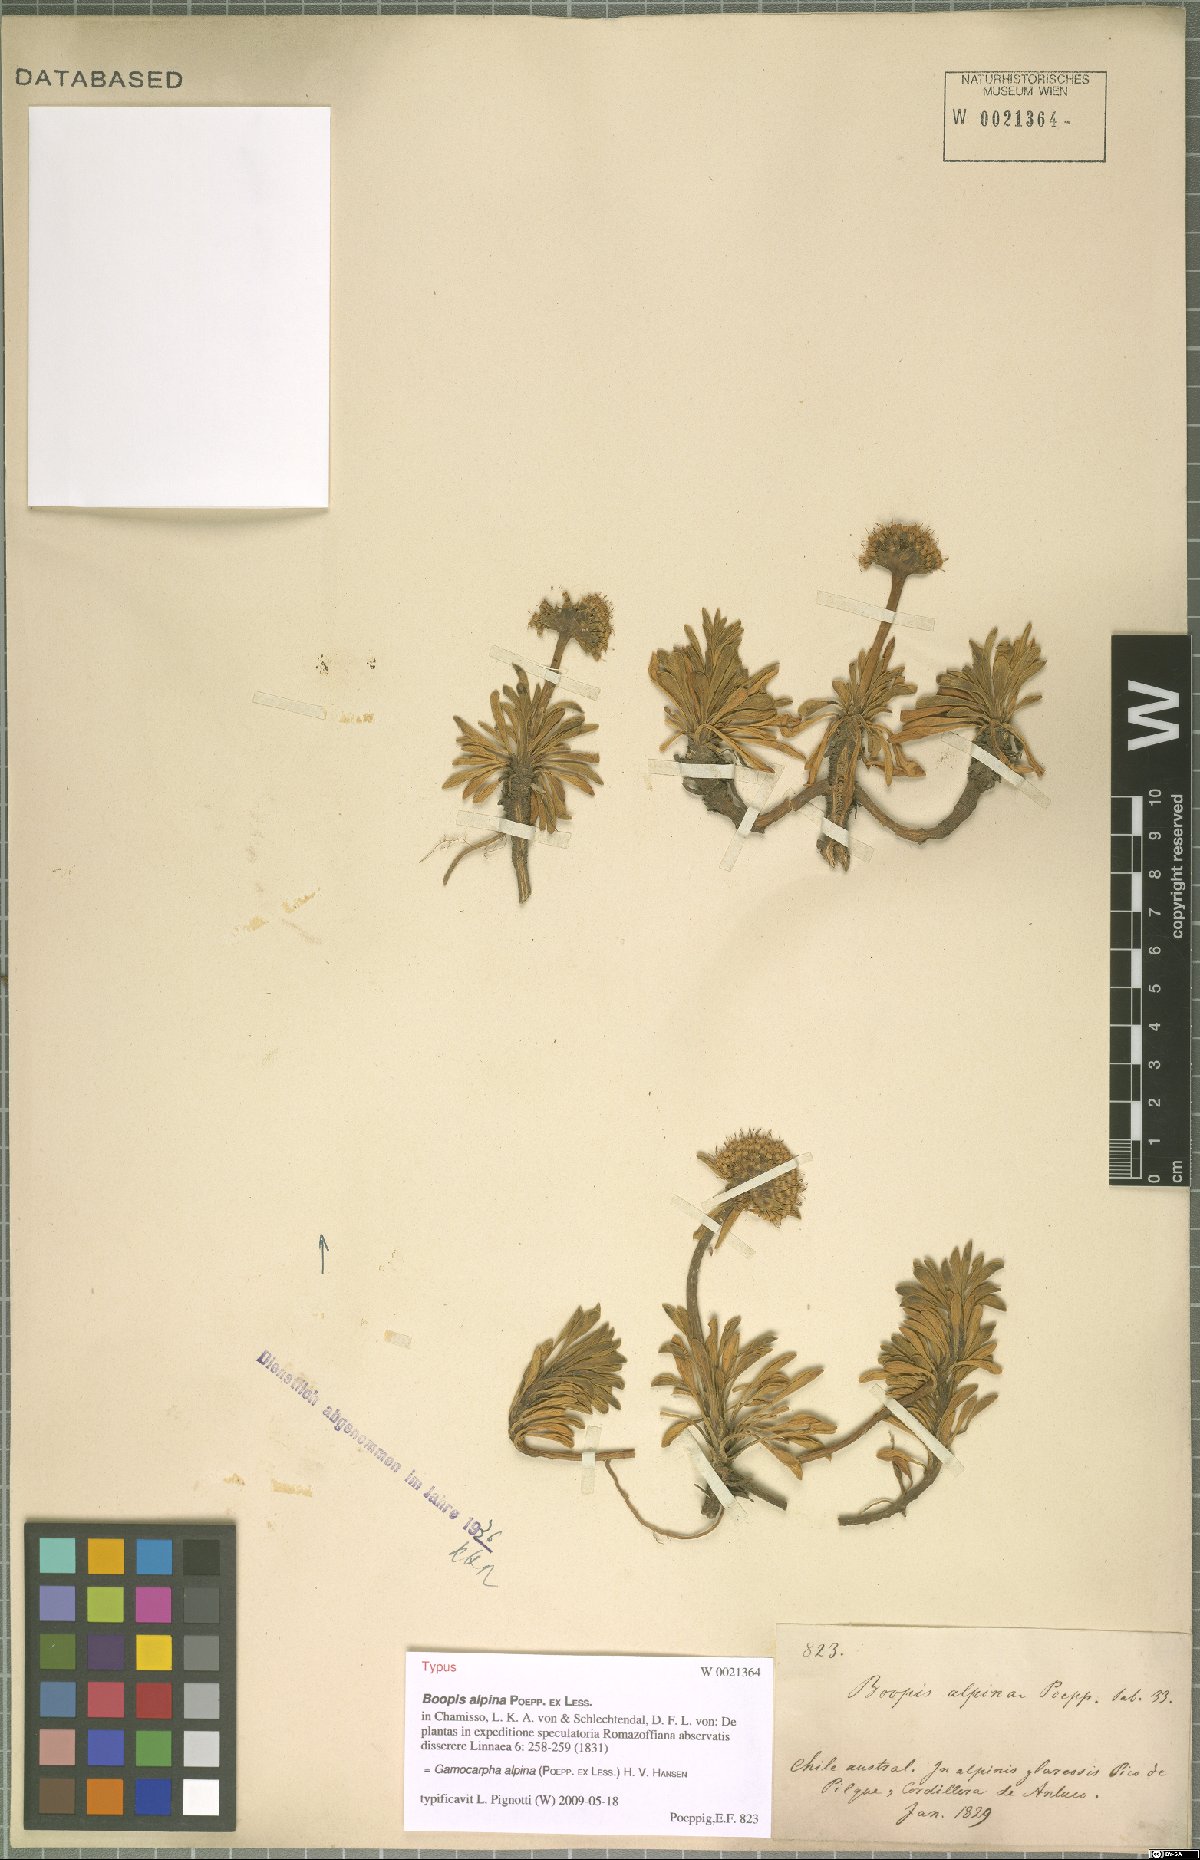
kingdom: Plantae
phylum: Tracheophyta
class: Magnoliopsida
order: Asterales
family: Calyceraceae
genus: Gamocarpha
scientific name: Gamocarpha alpina
